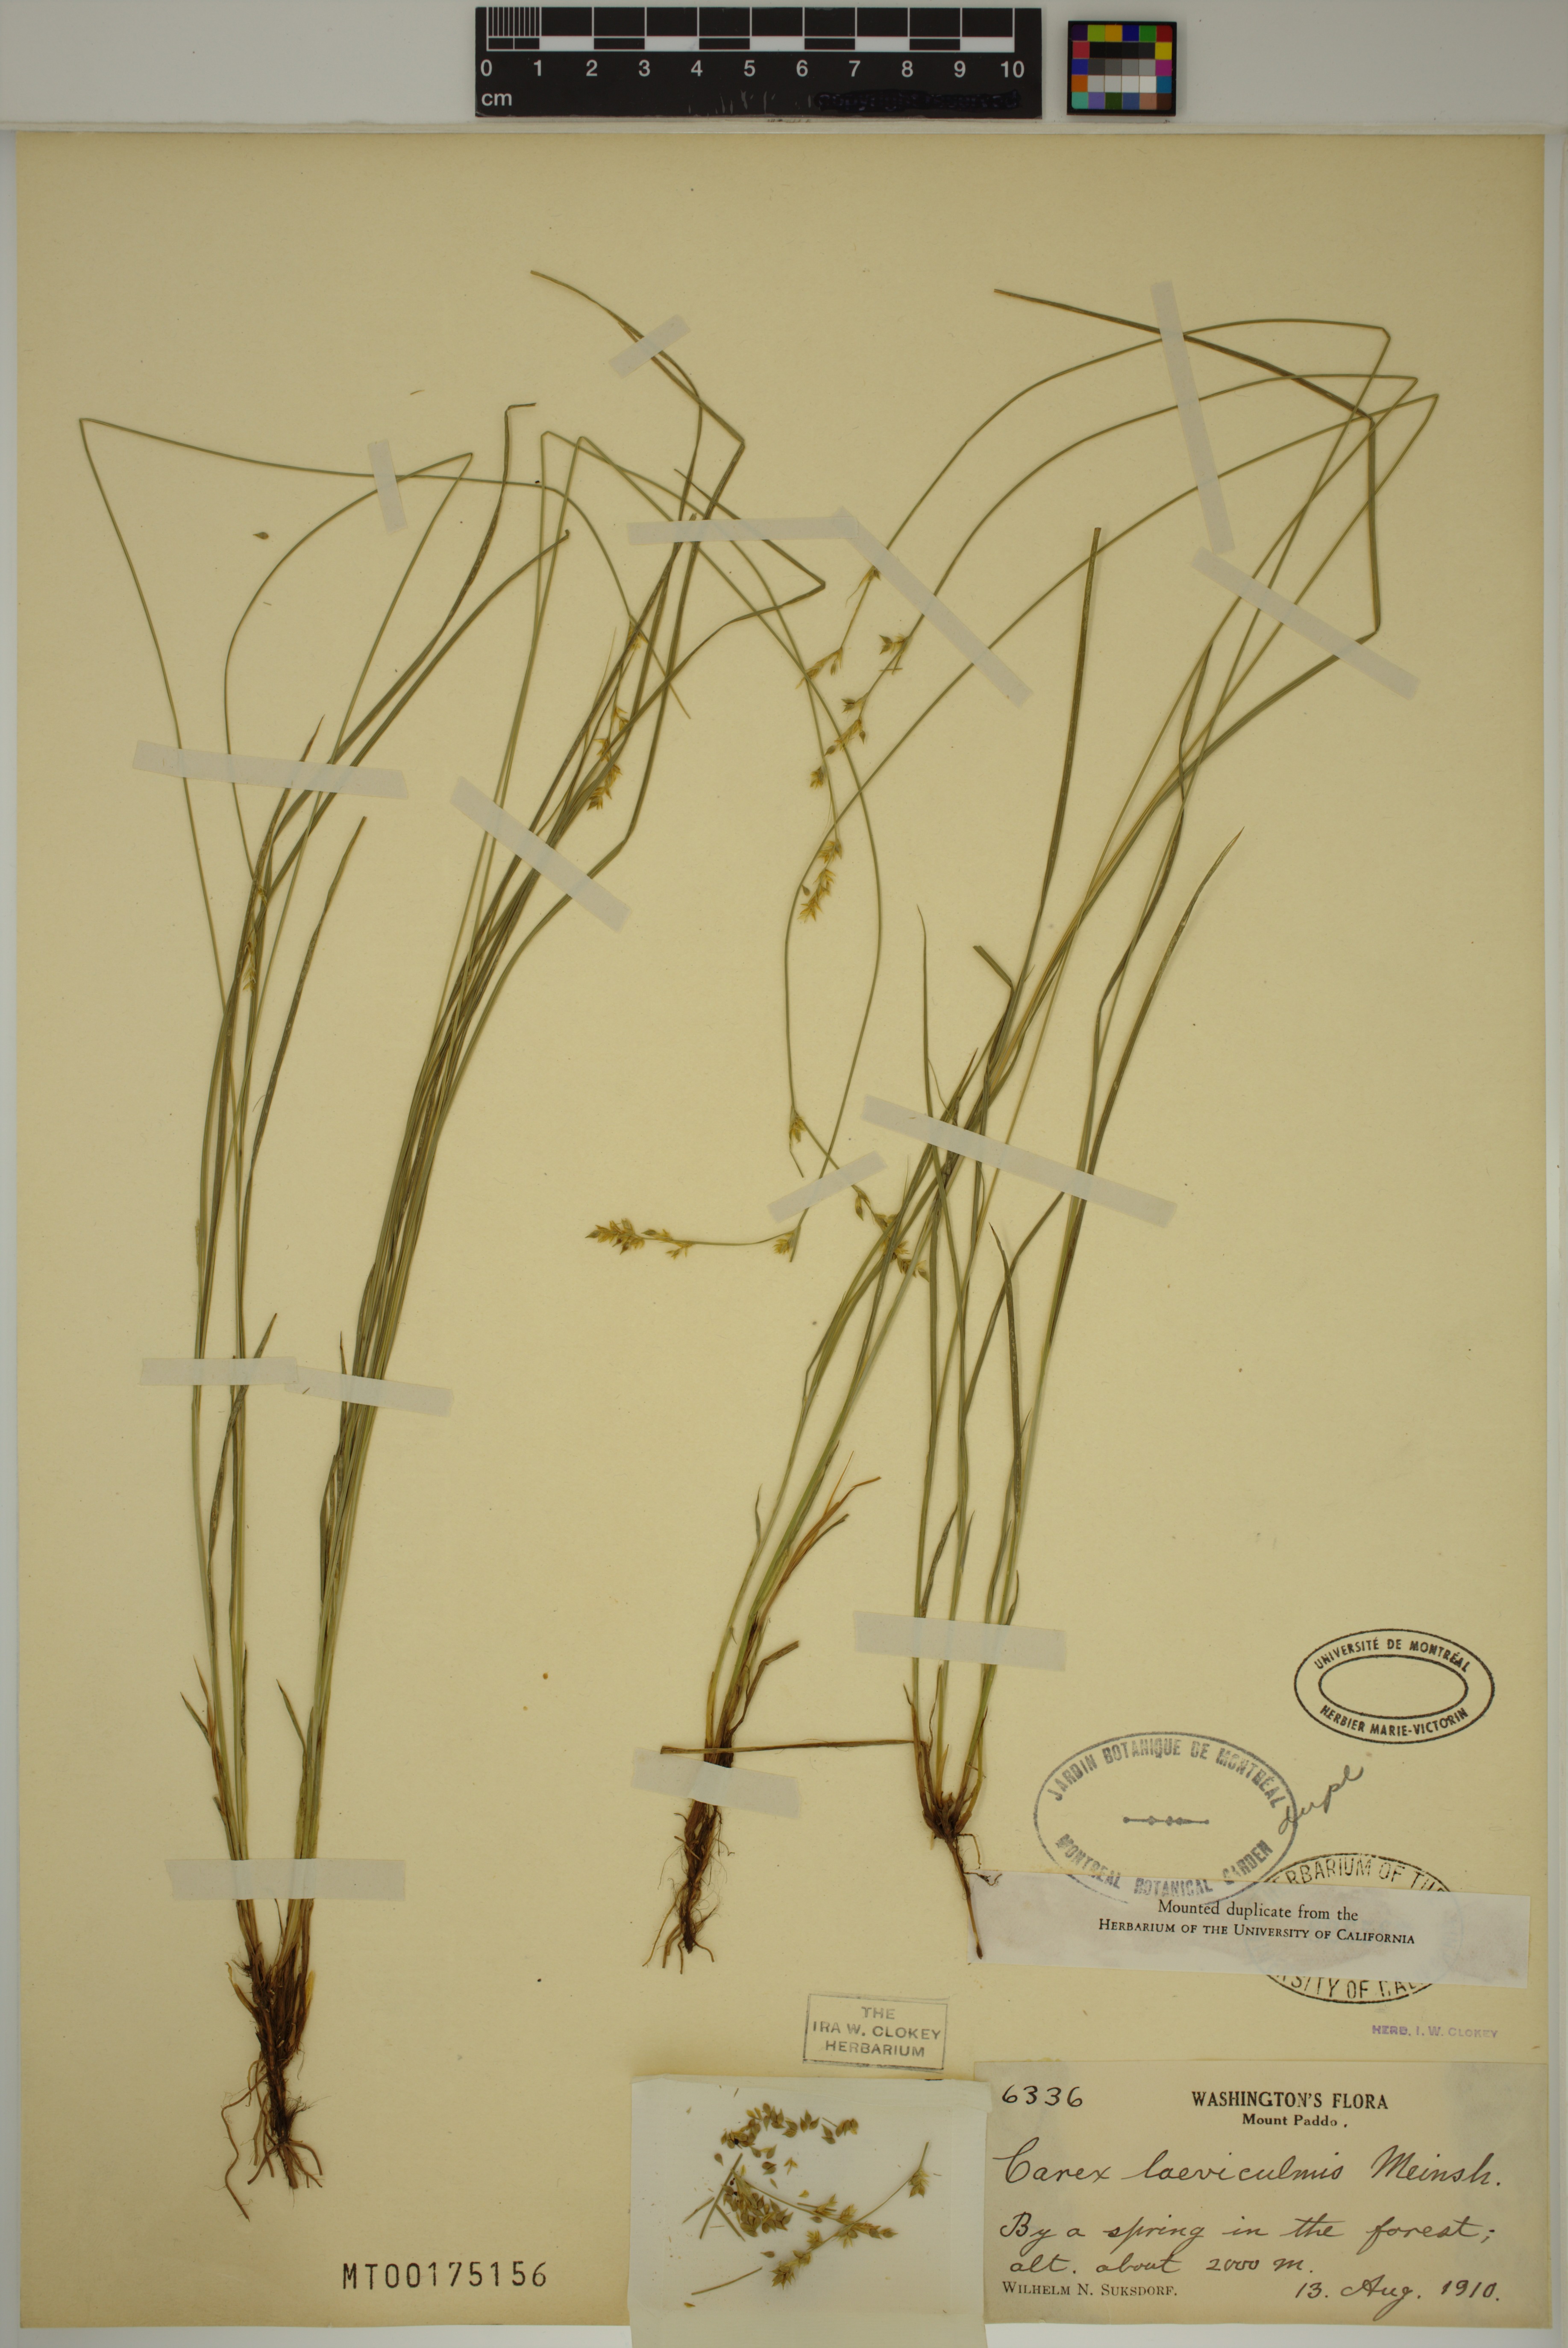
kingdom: Plantae
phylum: Tracheophyta
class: Liliopsida
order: Poales
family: Cyperaceae
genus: Carex
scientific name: Carex laeviculmis
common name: Smooth sedge
